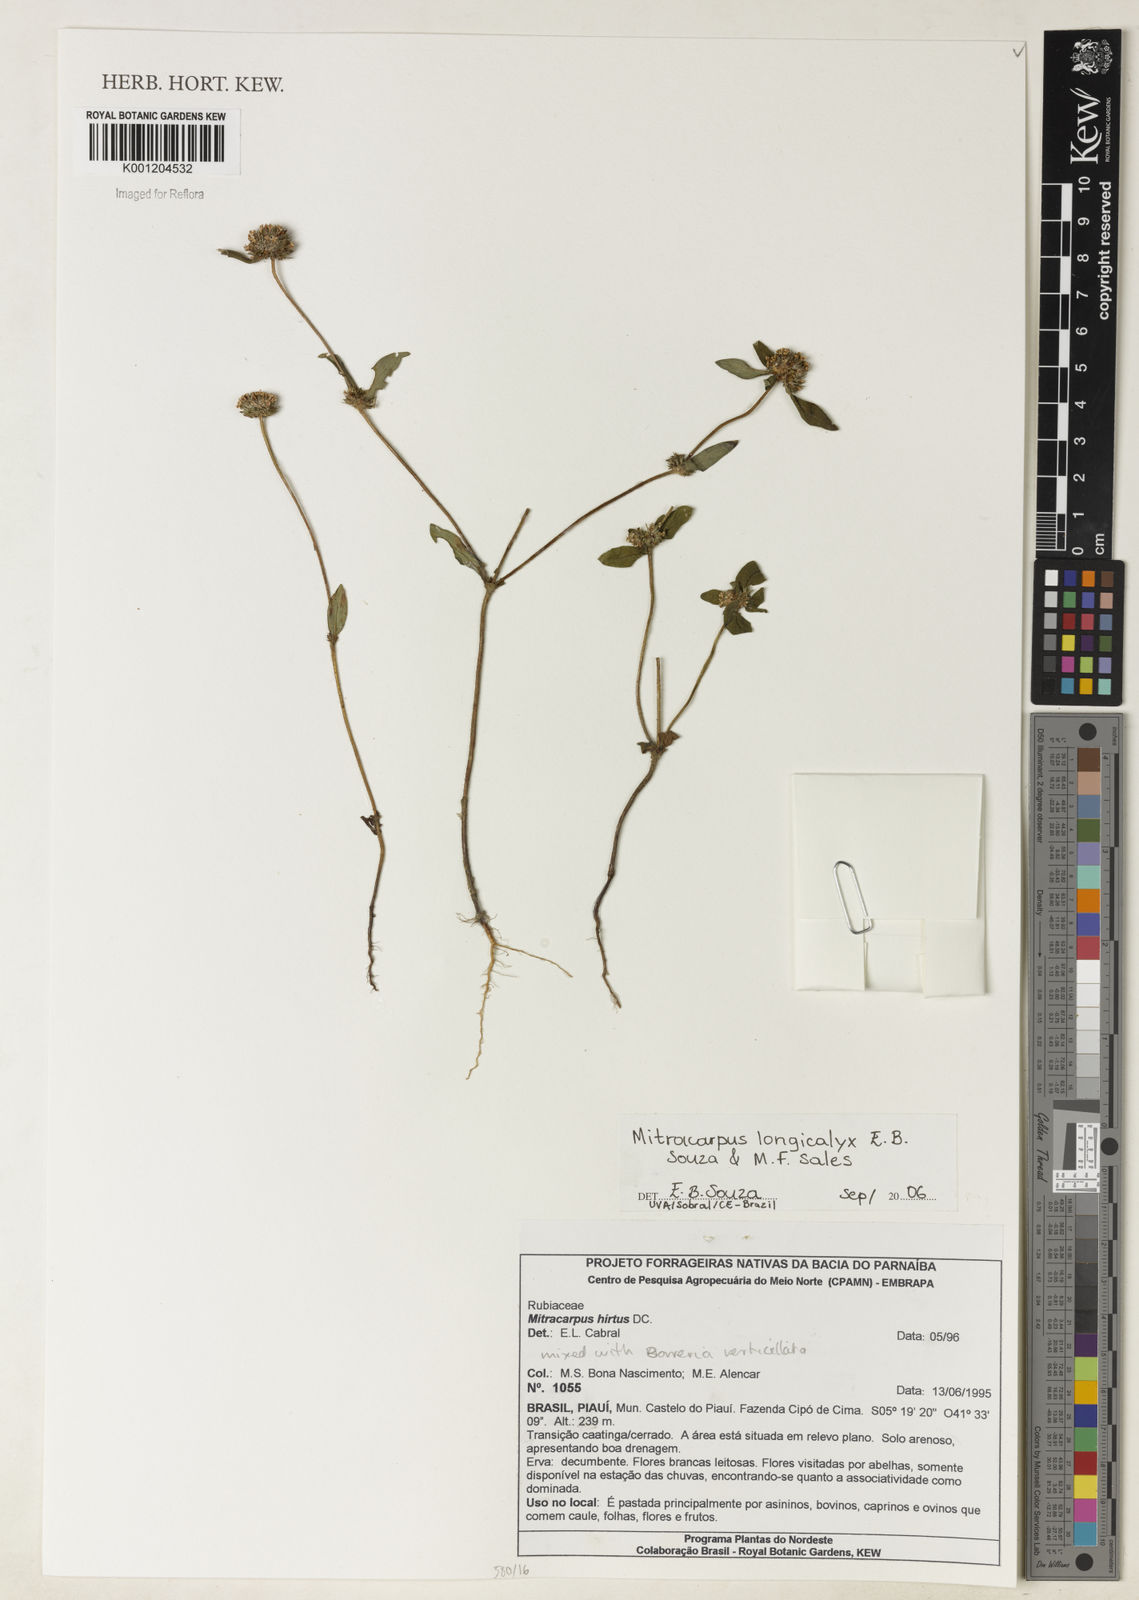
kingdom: Plantae
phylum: Tracheophyta
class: Magnoliopsida
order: Gentianales
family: Rubiaceae
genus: Mitracarpus
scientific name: Mitracarpus longicalyx
